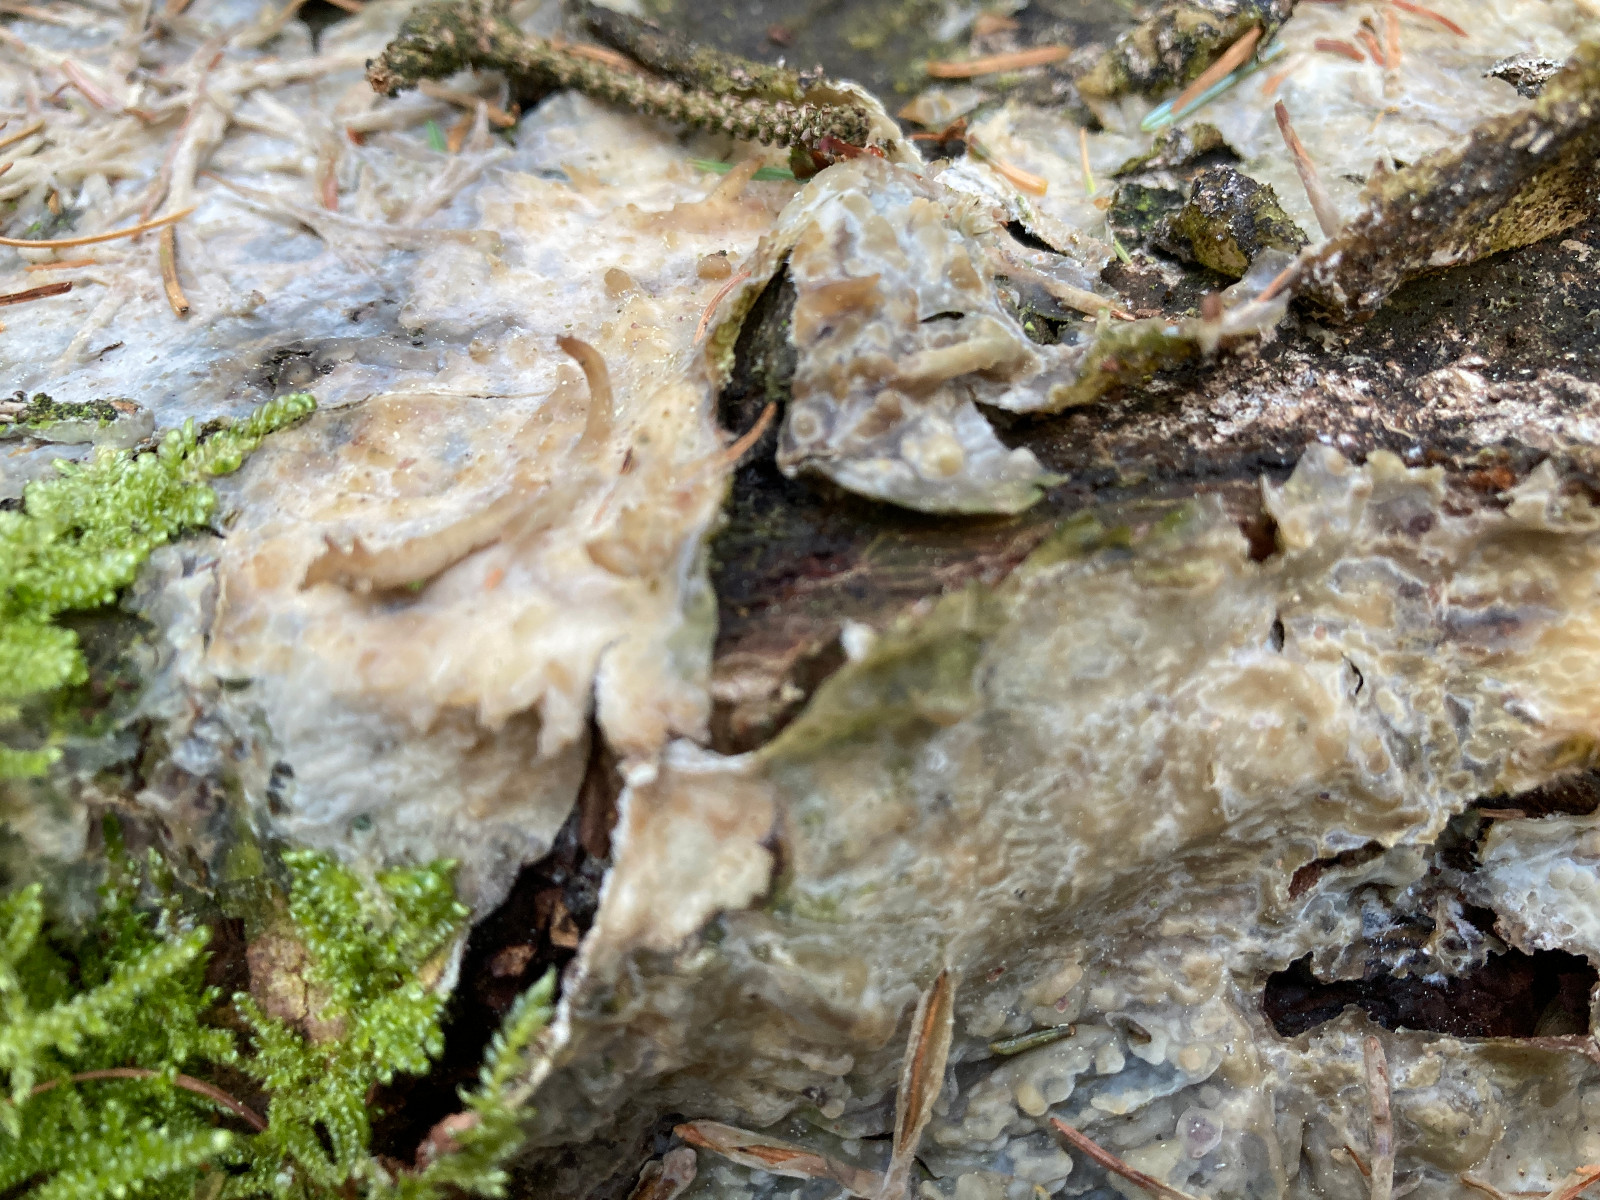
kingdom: Fungi
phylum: Basidiomycota
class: Agaricomycetes
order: Polyporales
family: Phanerochaetaceae
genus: Phlebiopsis
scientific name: Phlebiopsis gigantea
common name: kæmpebarksvamp
